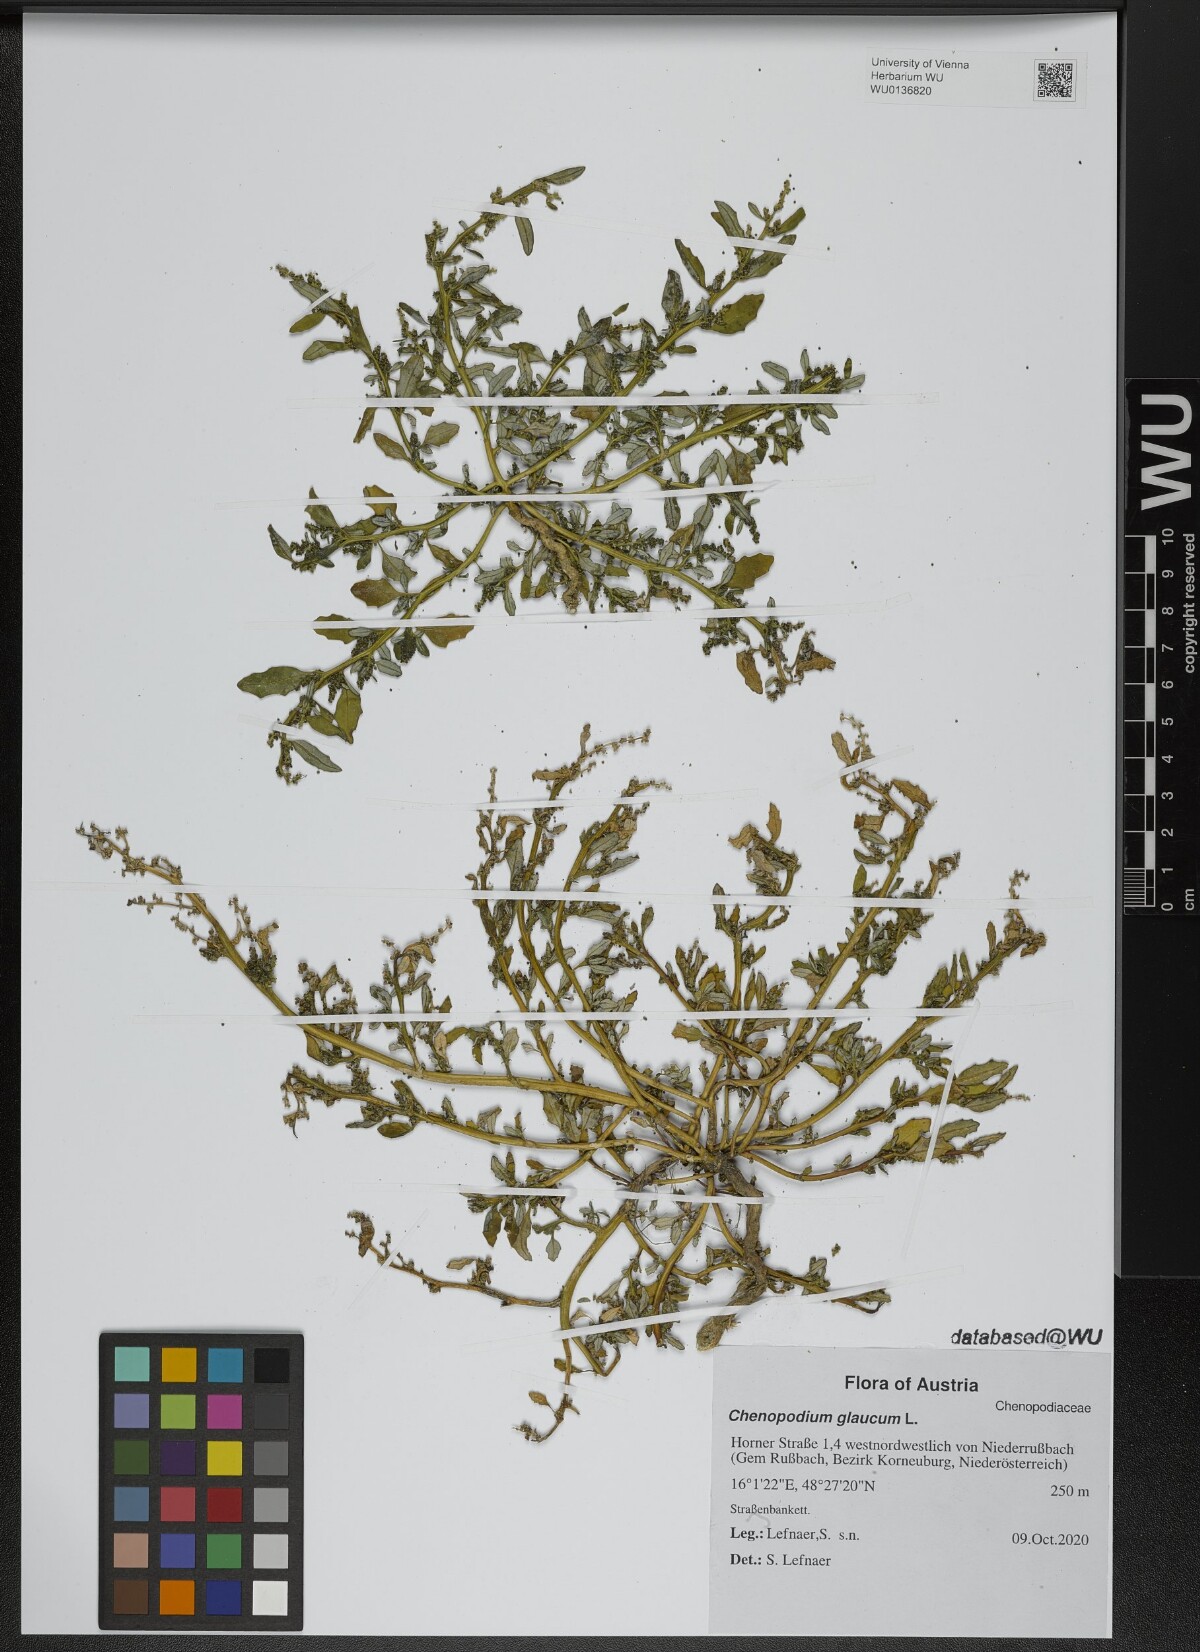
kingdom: Plantae
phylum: Tracheophyta
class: Magnoliopsida
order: Caryophyllales
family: Amaranthaceae
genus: Oxybasis
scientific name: Oxybasis glauca
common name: Glaucous goosefoot
